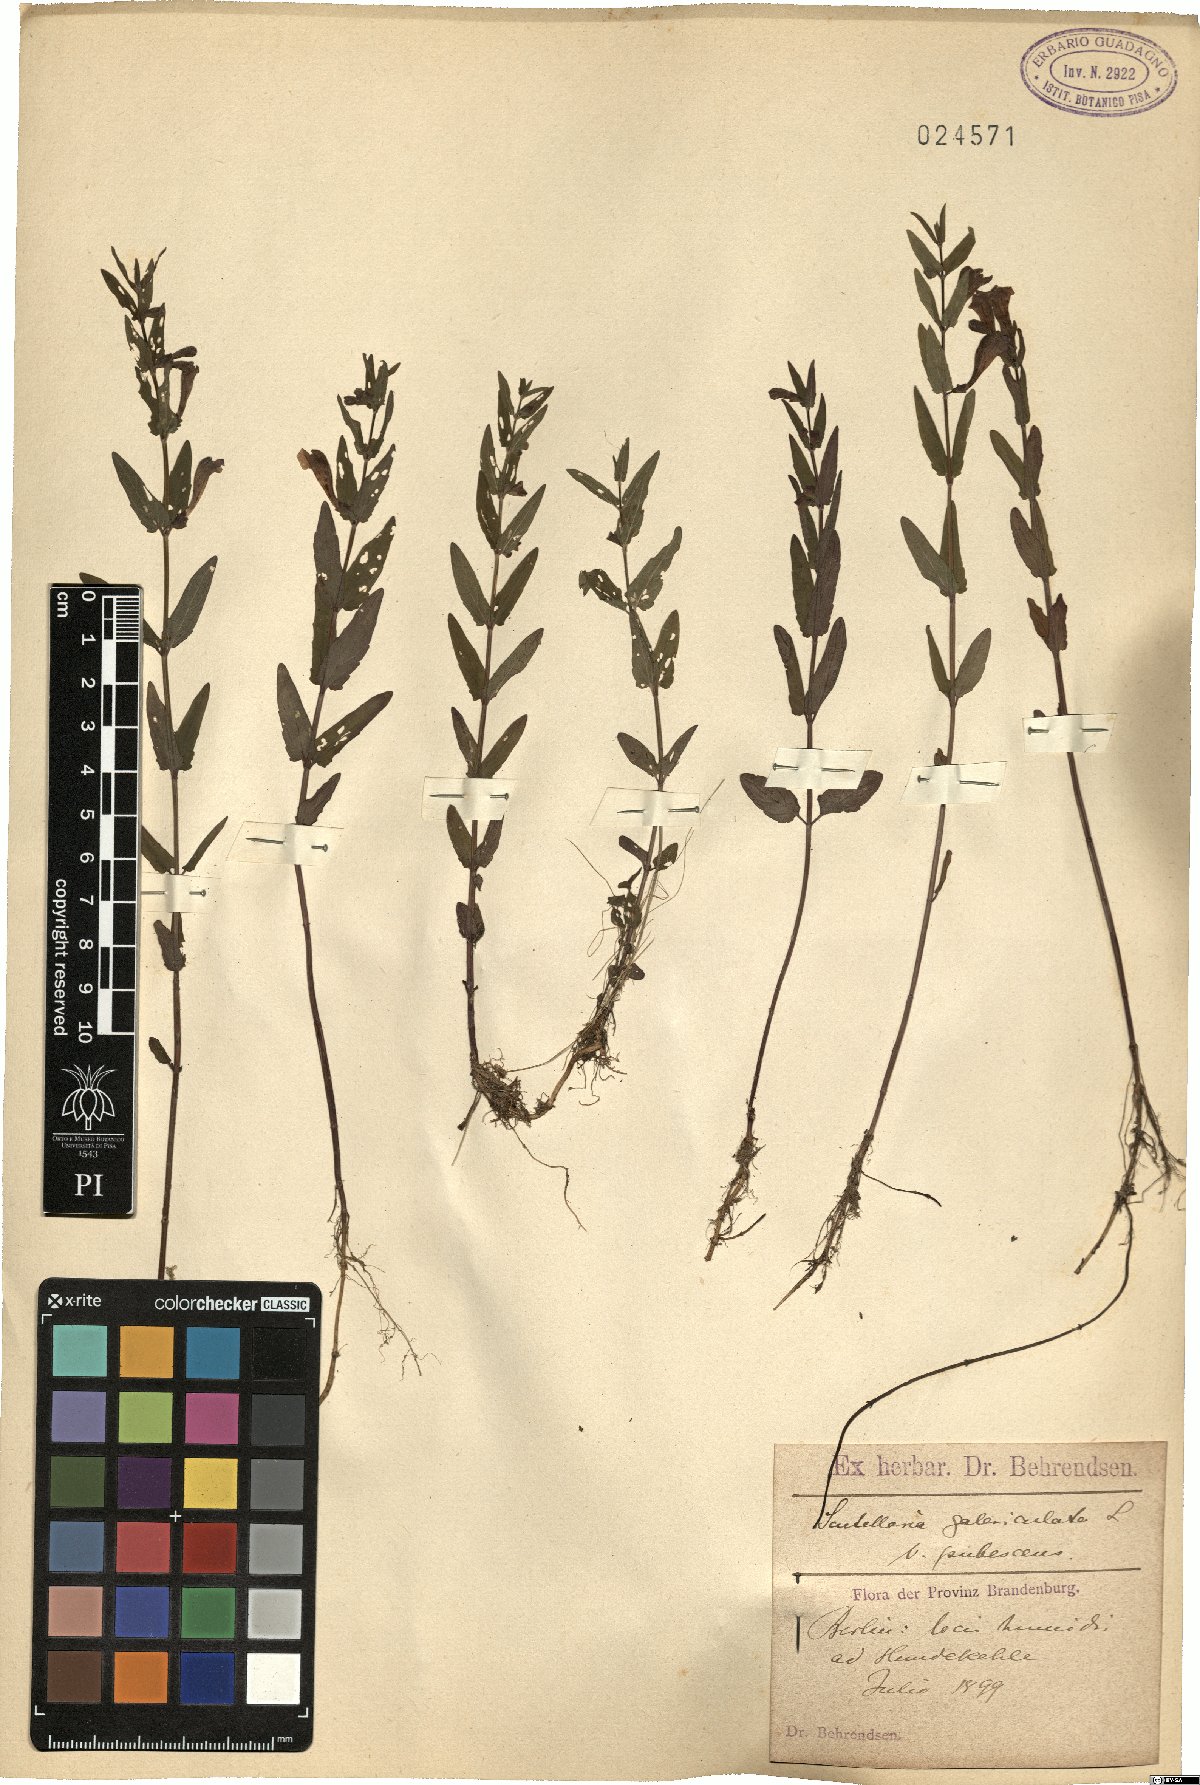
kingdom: Plantae
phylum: Tracheophyta
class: Magnoliopsida
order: Lamiales
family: Lamiaceae
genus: Scutellaria
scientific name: Scutellaria nicholsonii
